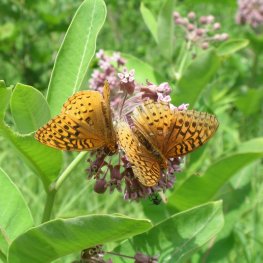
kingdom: Animalia
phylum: Arthropoda
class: Insecta
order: Lepidoptera
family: Nymphalidae
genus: Speyeria
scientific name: Speyeria cybele
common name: Great Spangled Fritillary
